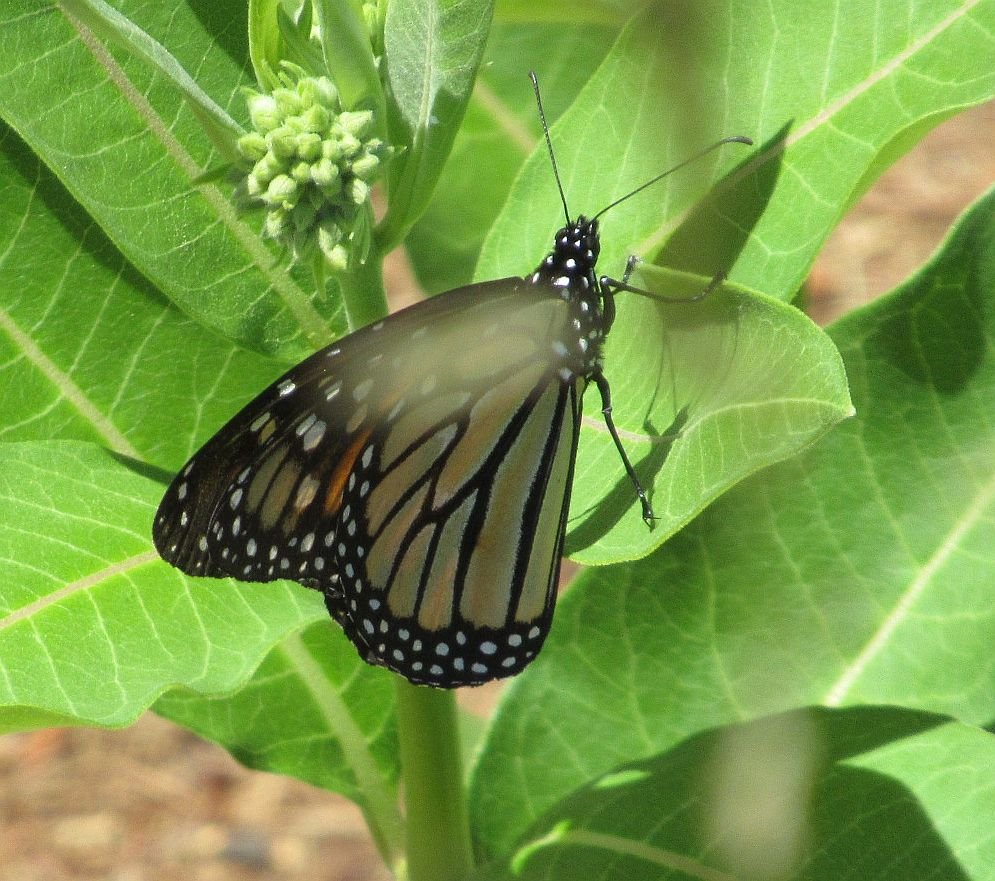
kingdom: Animalia
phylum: Arthropoda
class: Insecta
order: Lepidoptera
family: Nymphalidae
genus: Danaus
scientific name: Danaus plexippus
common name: Monarch
